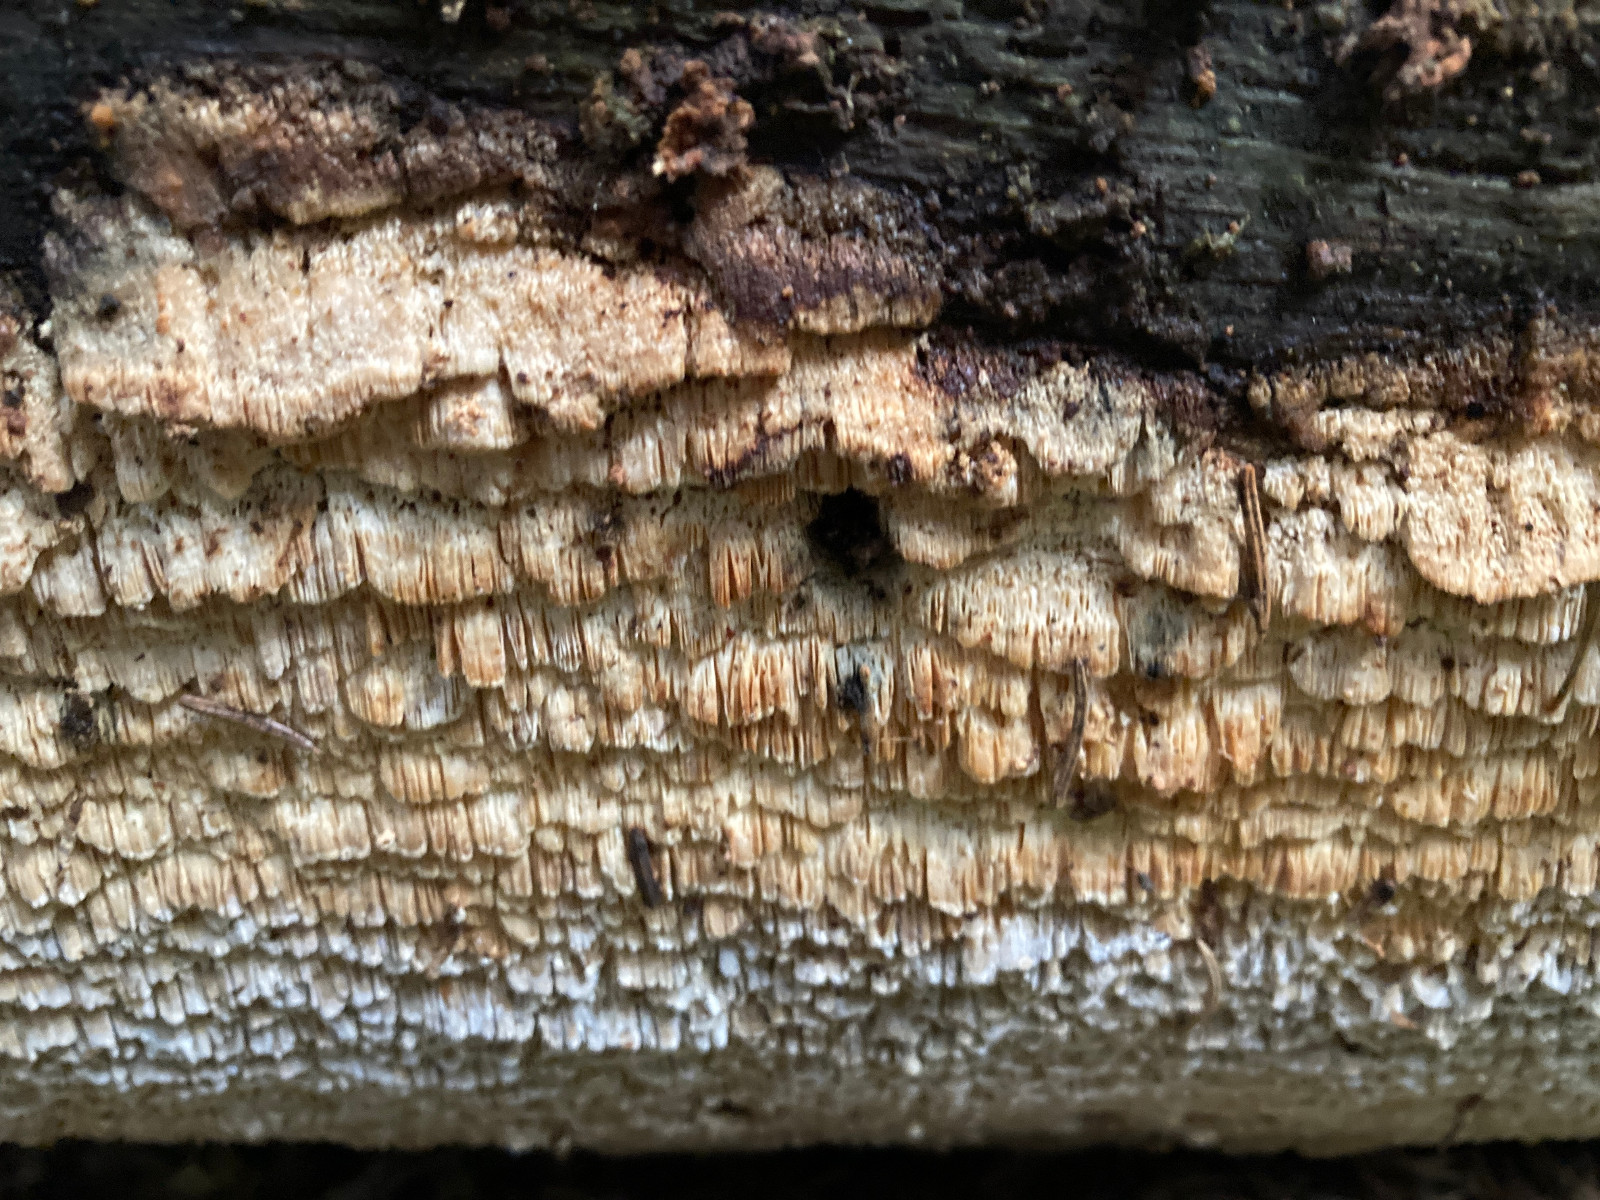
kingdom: Fungi
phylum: Basidiomycota
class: Agaricomycetes
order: Polyporales
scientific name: Polyporales
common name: poresvampordenen
